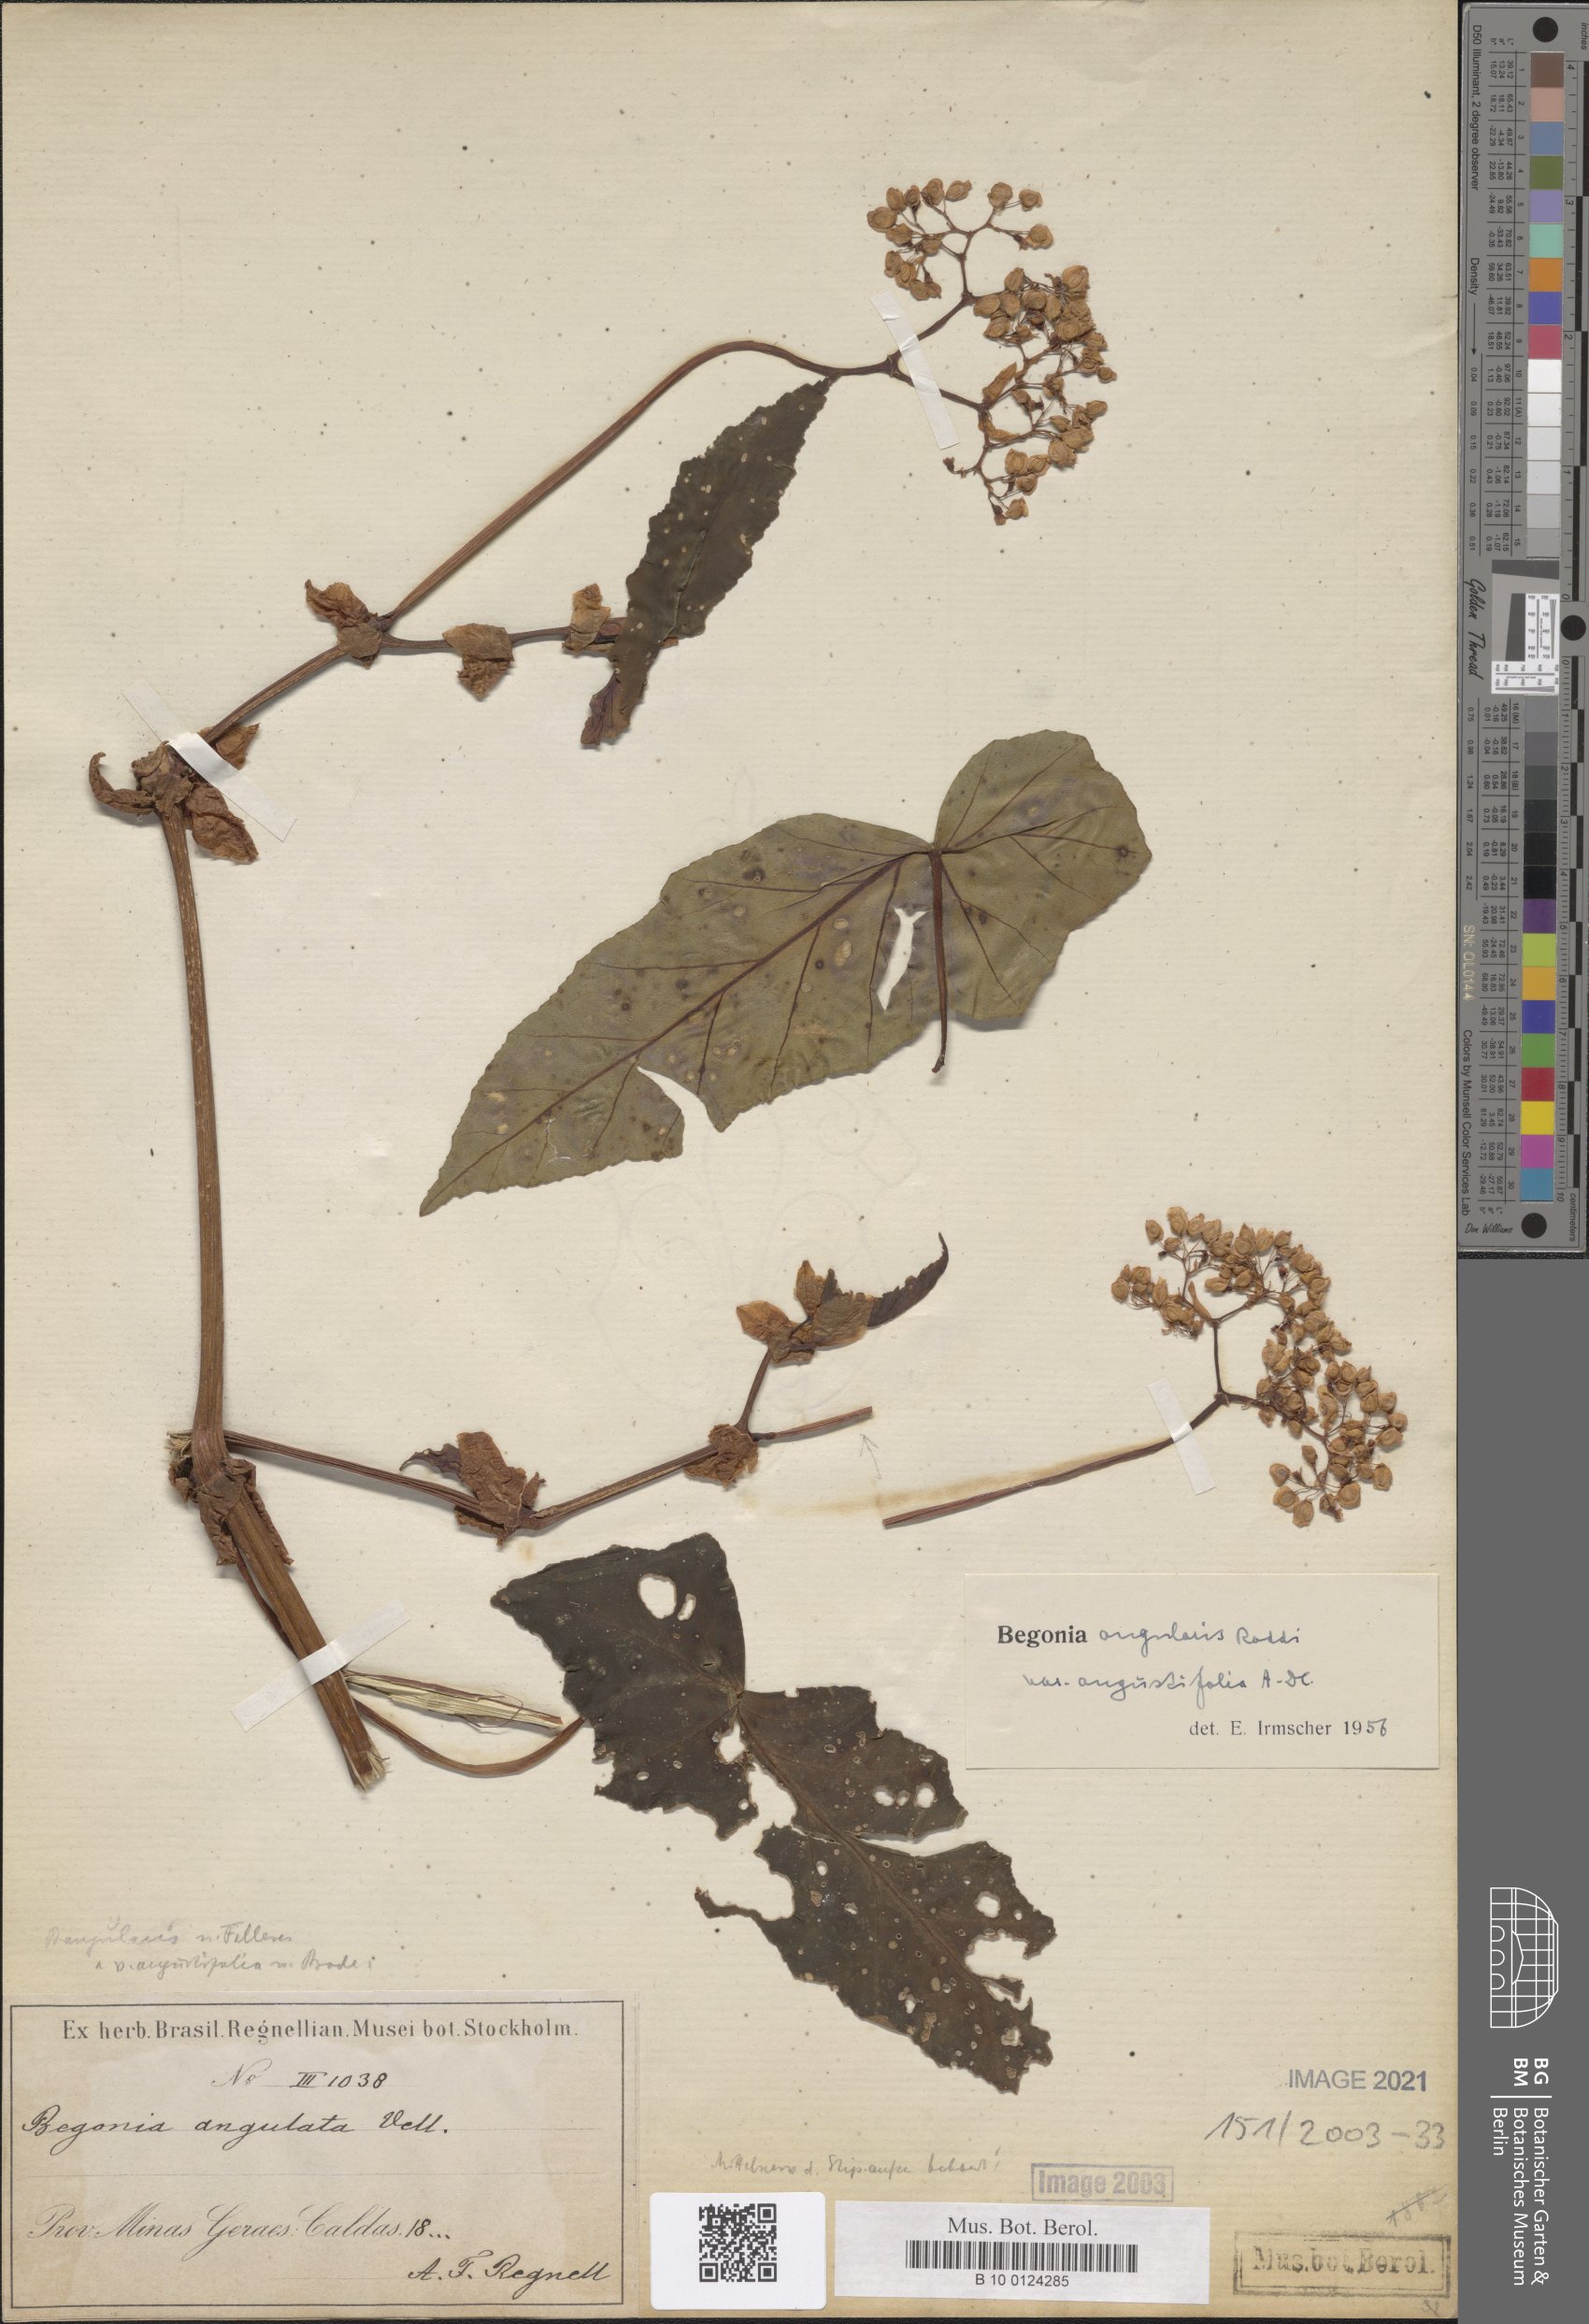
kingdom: Plantae
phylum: Tracheophyta
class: Magnoliopsida
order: Cucurbitales
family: Begoniaceae
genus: Begonia
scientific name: Begonia angularis
